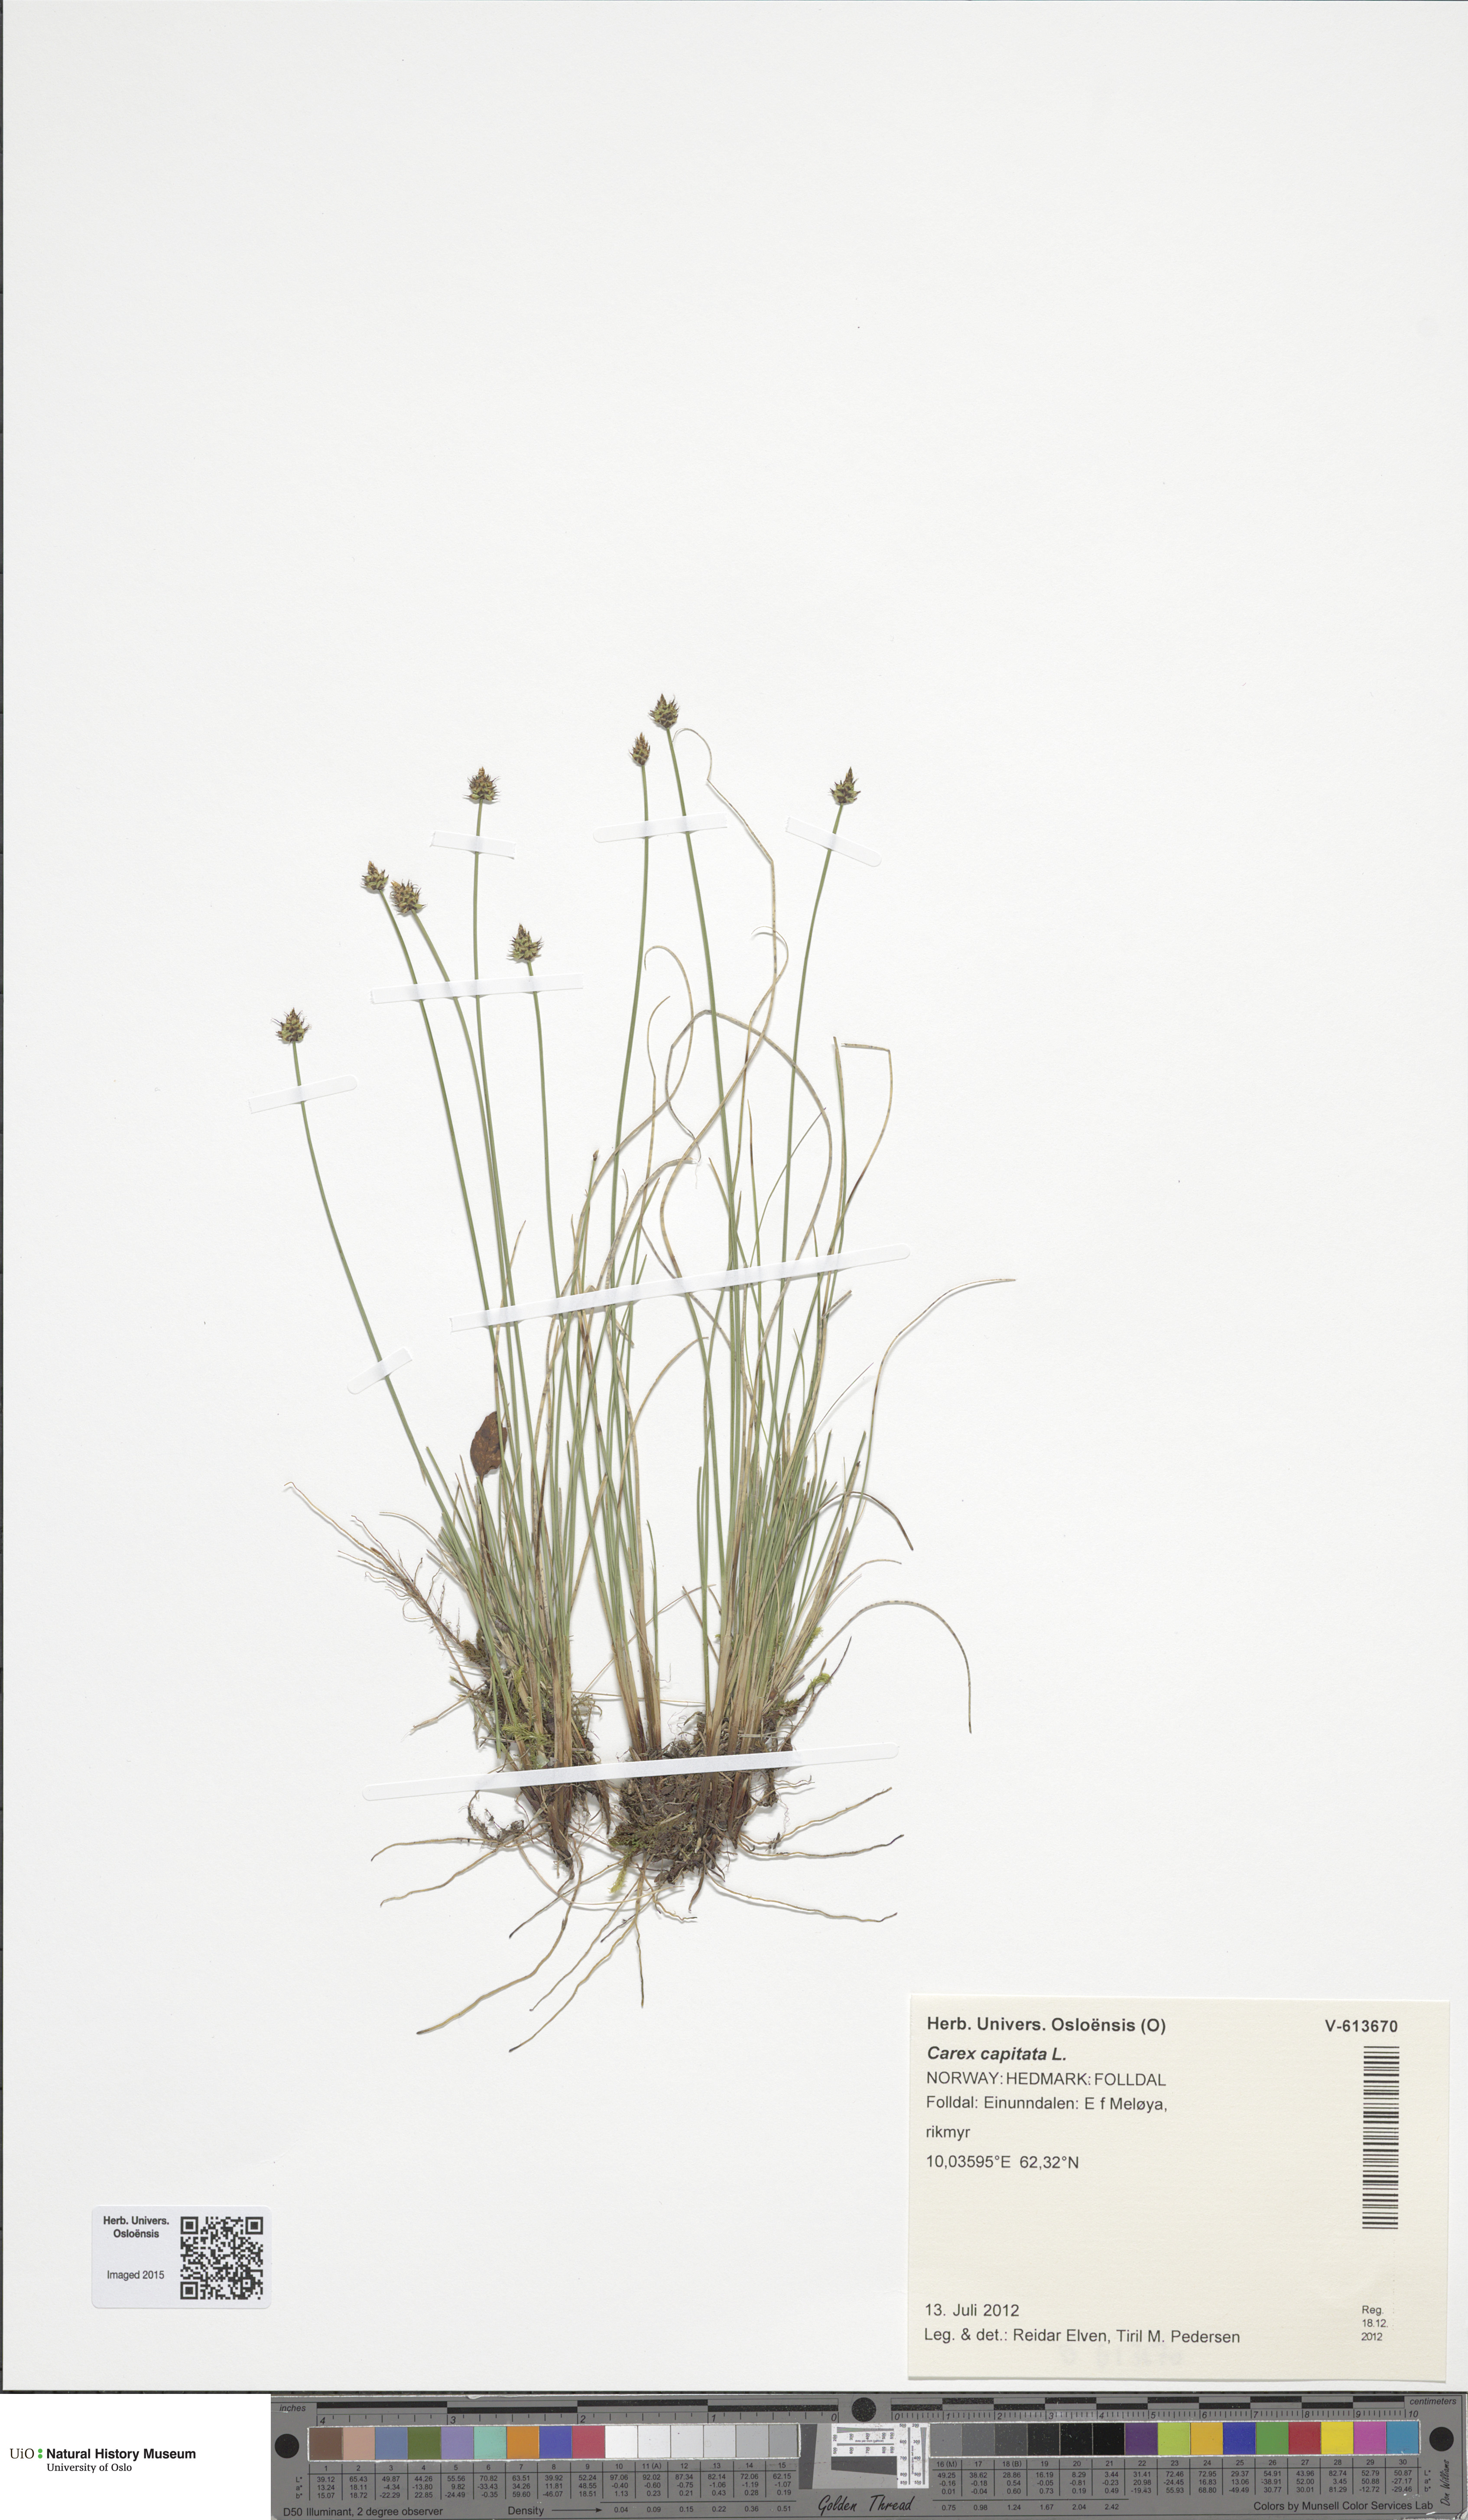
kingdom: Plantae
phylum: Tracheophyta
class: Liliopsida
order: Poales
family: Cyperaceae
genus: Carex
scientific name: Carex capitata
